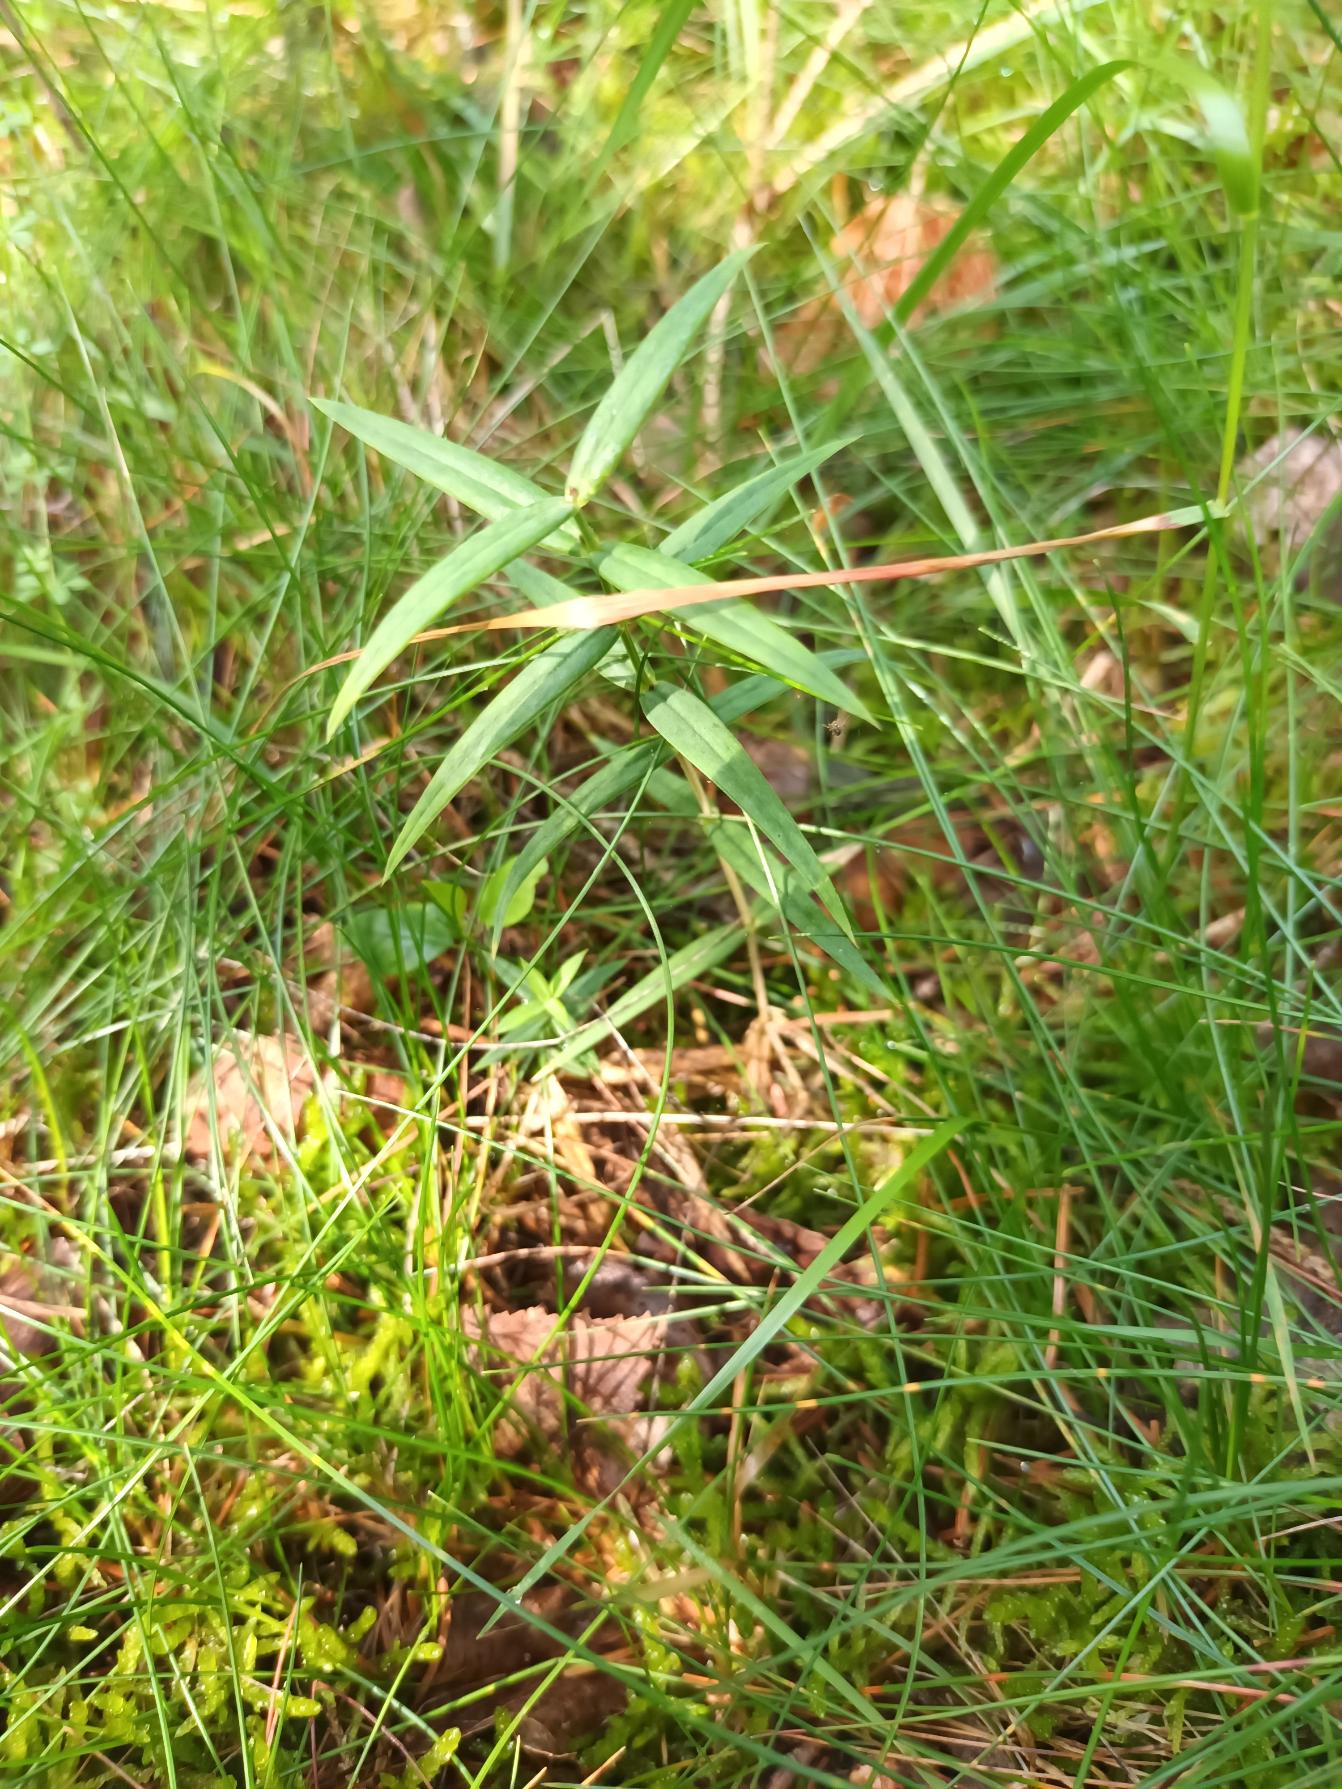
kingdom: Plantae
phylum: Tracheophyta
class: Magnoliopsida
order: Caryophyllales
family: Caryophyllaceae
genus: Rabelera
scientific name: Rabelera holostea
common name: Stor fladstjerne
